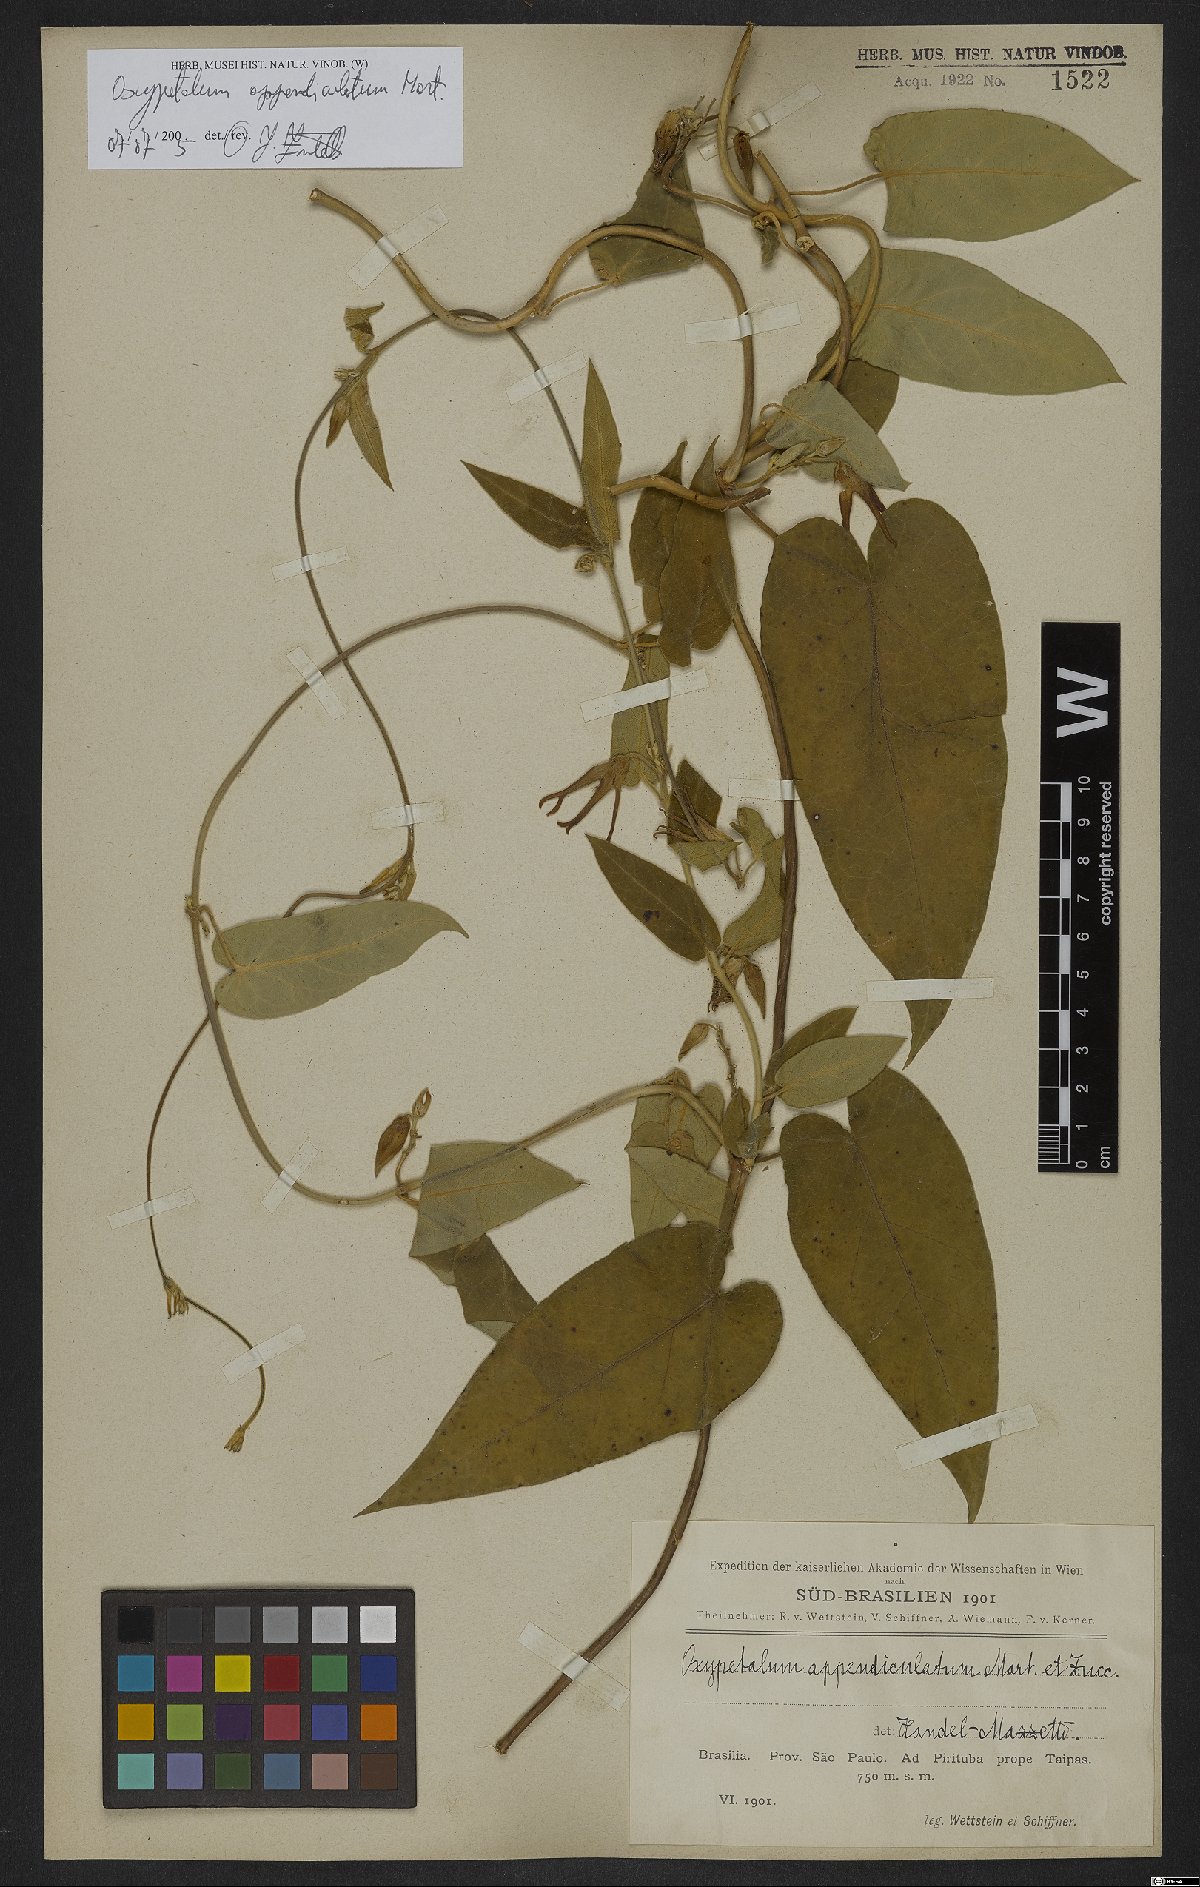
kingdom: Plantae
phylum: Tracheophyta
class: Magnoliopsida
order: Gentianales
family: Apocynaceae
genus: Oxypetalum
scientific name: Oxypetalum appendiculatum
